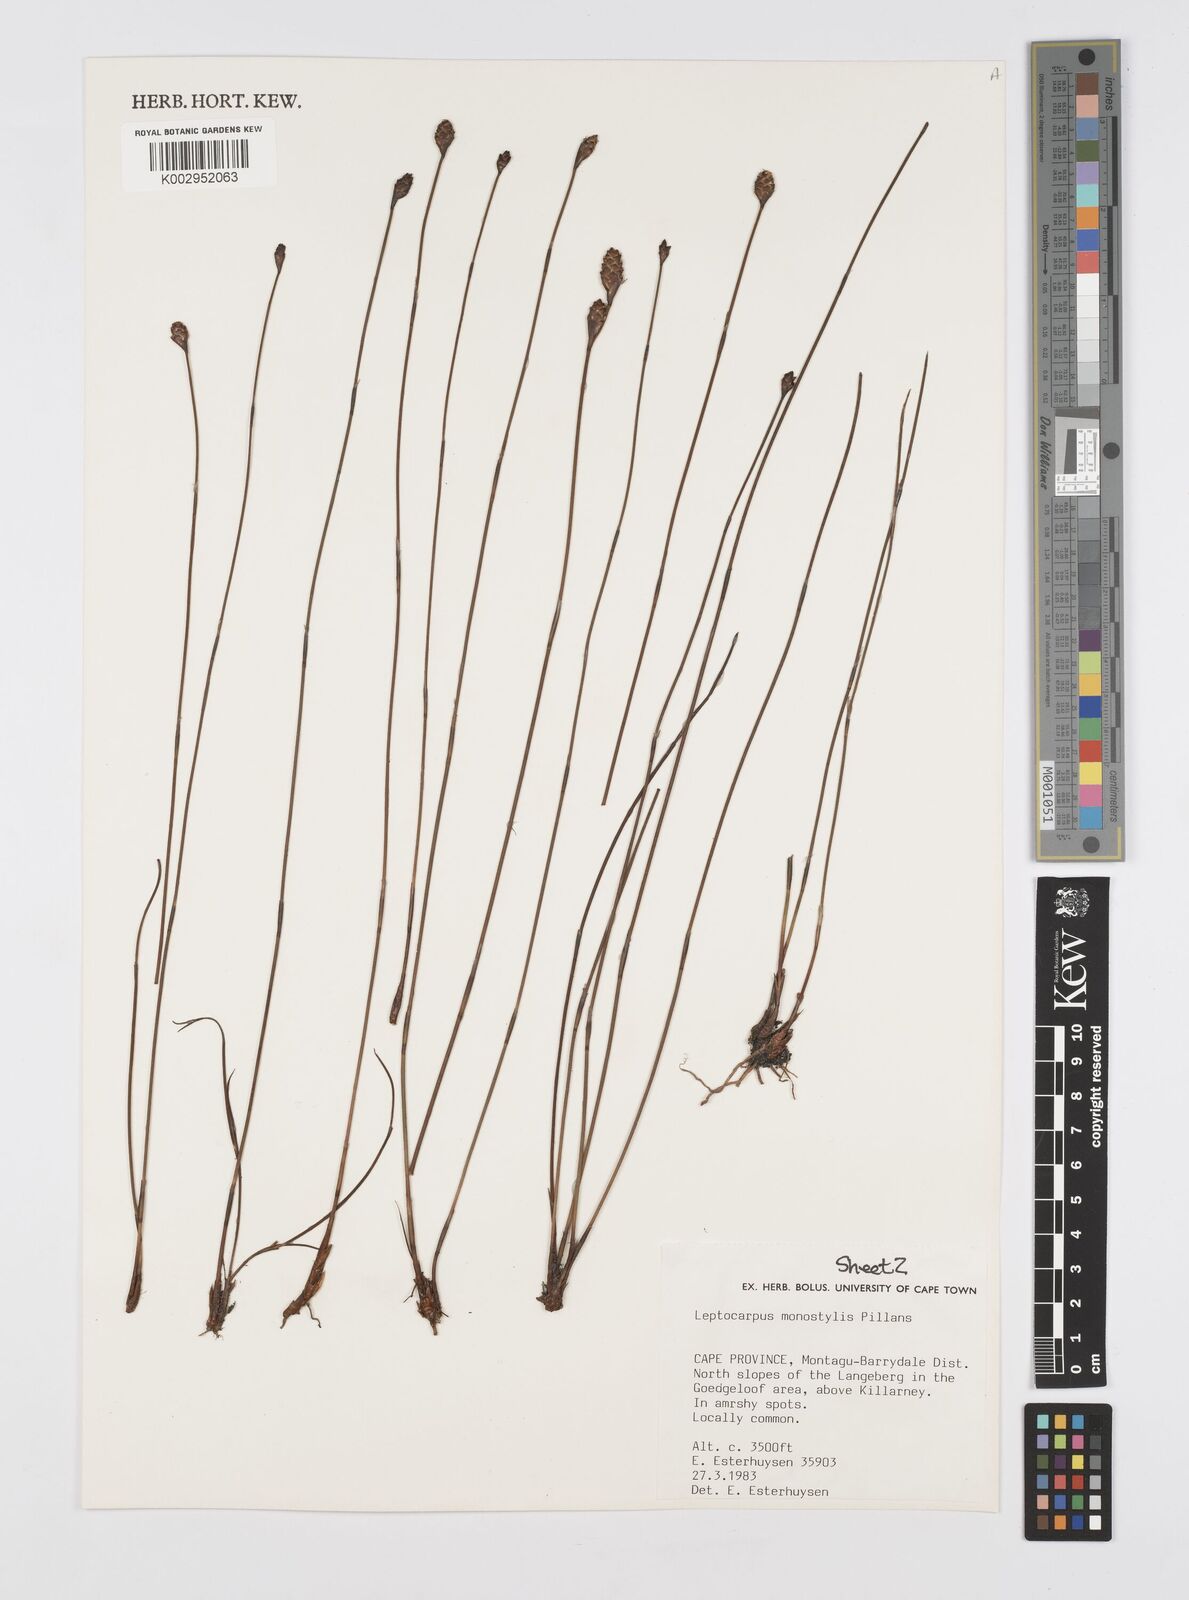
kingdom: Plantae
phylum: Tracheophyta
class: Liliopsida
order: Poales
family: Restionaceae
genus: Restio
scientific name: Restio monostylis
